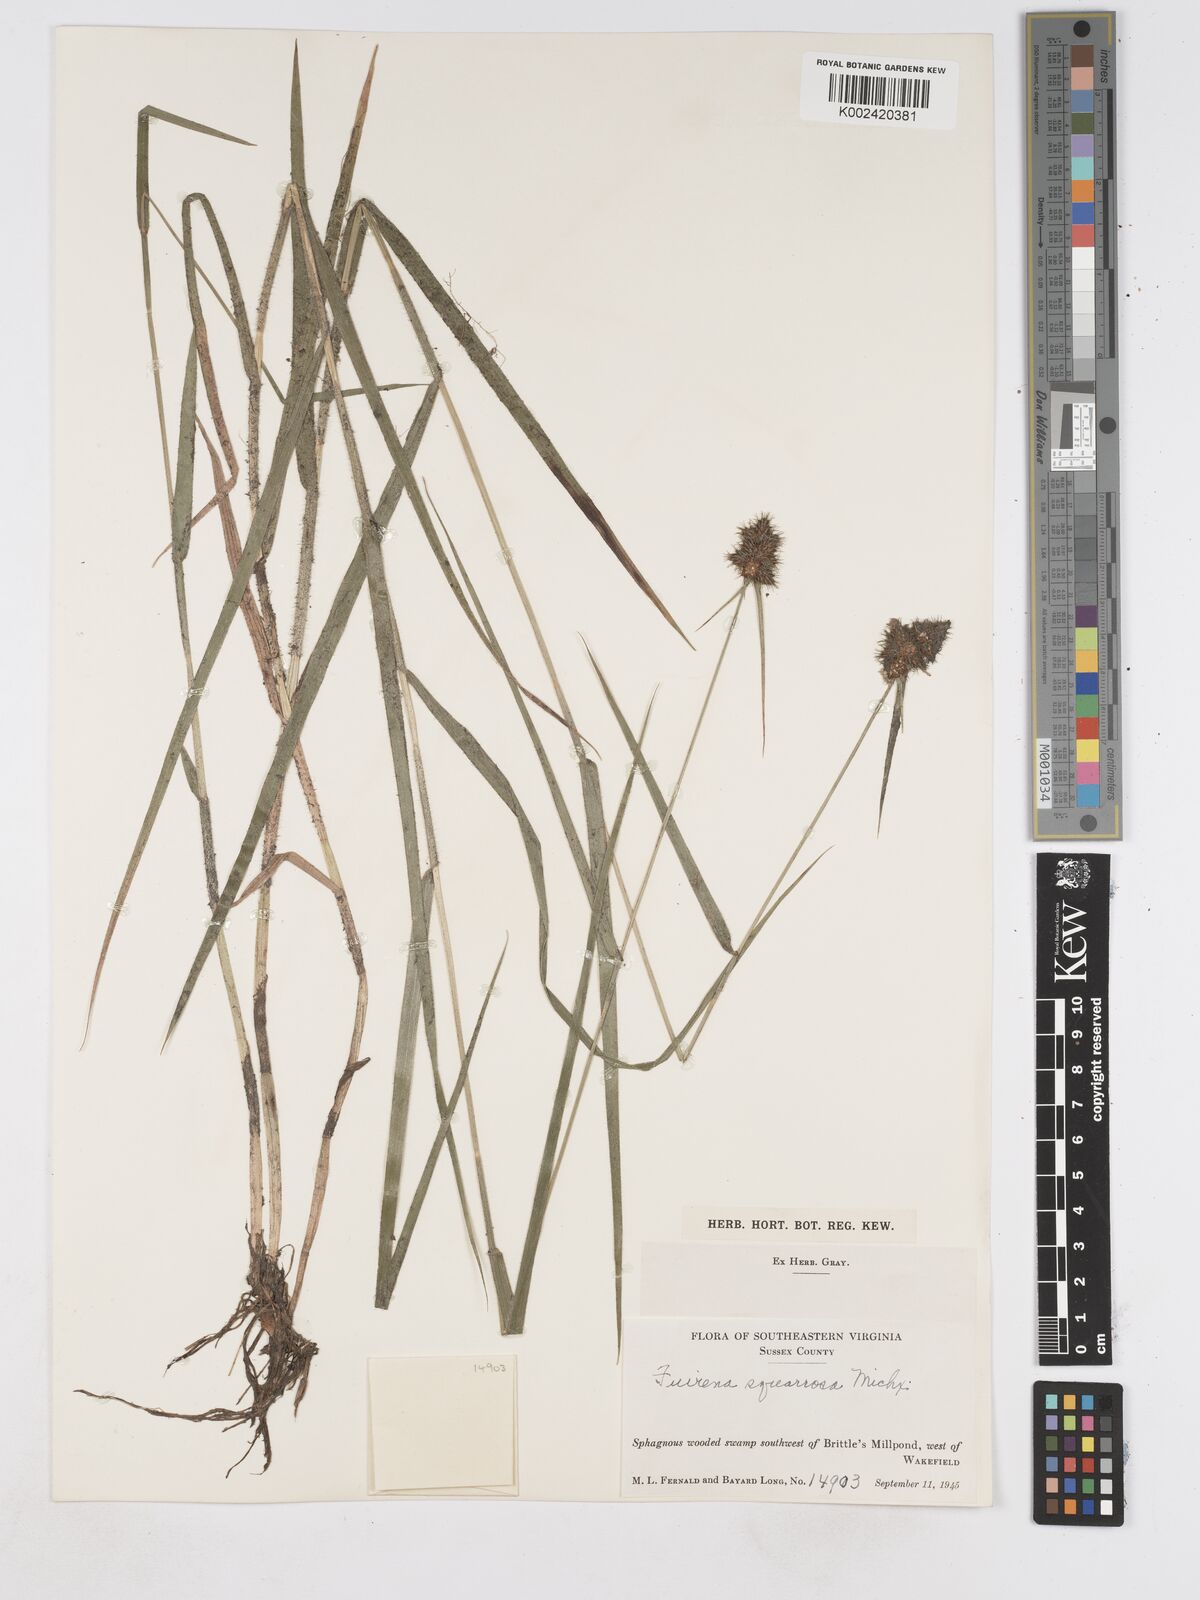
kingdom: Plantae
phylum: Tracheophyta
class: Liliopsida
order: Poales
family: Cyperaceae
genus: Fuirena
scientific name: Fuirena squarrosa
